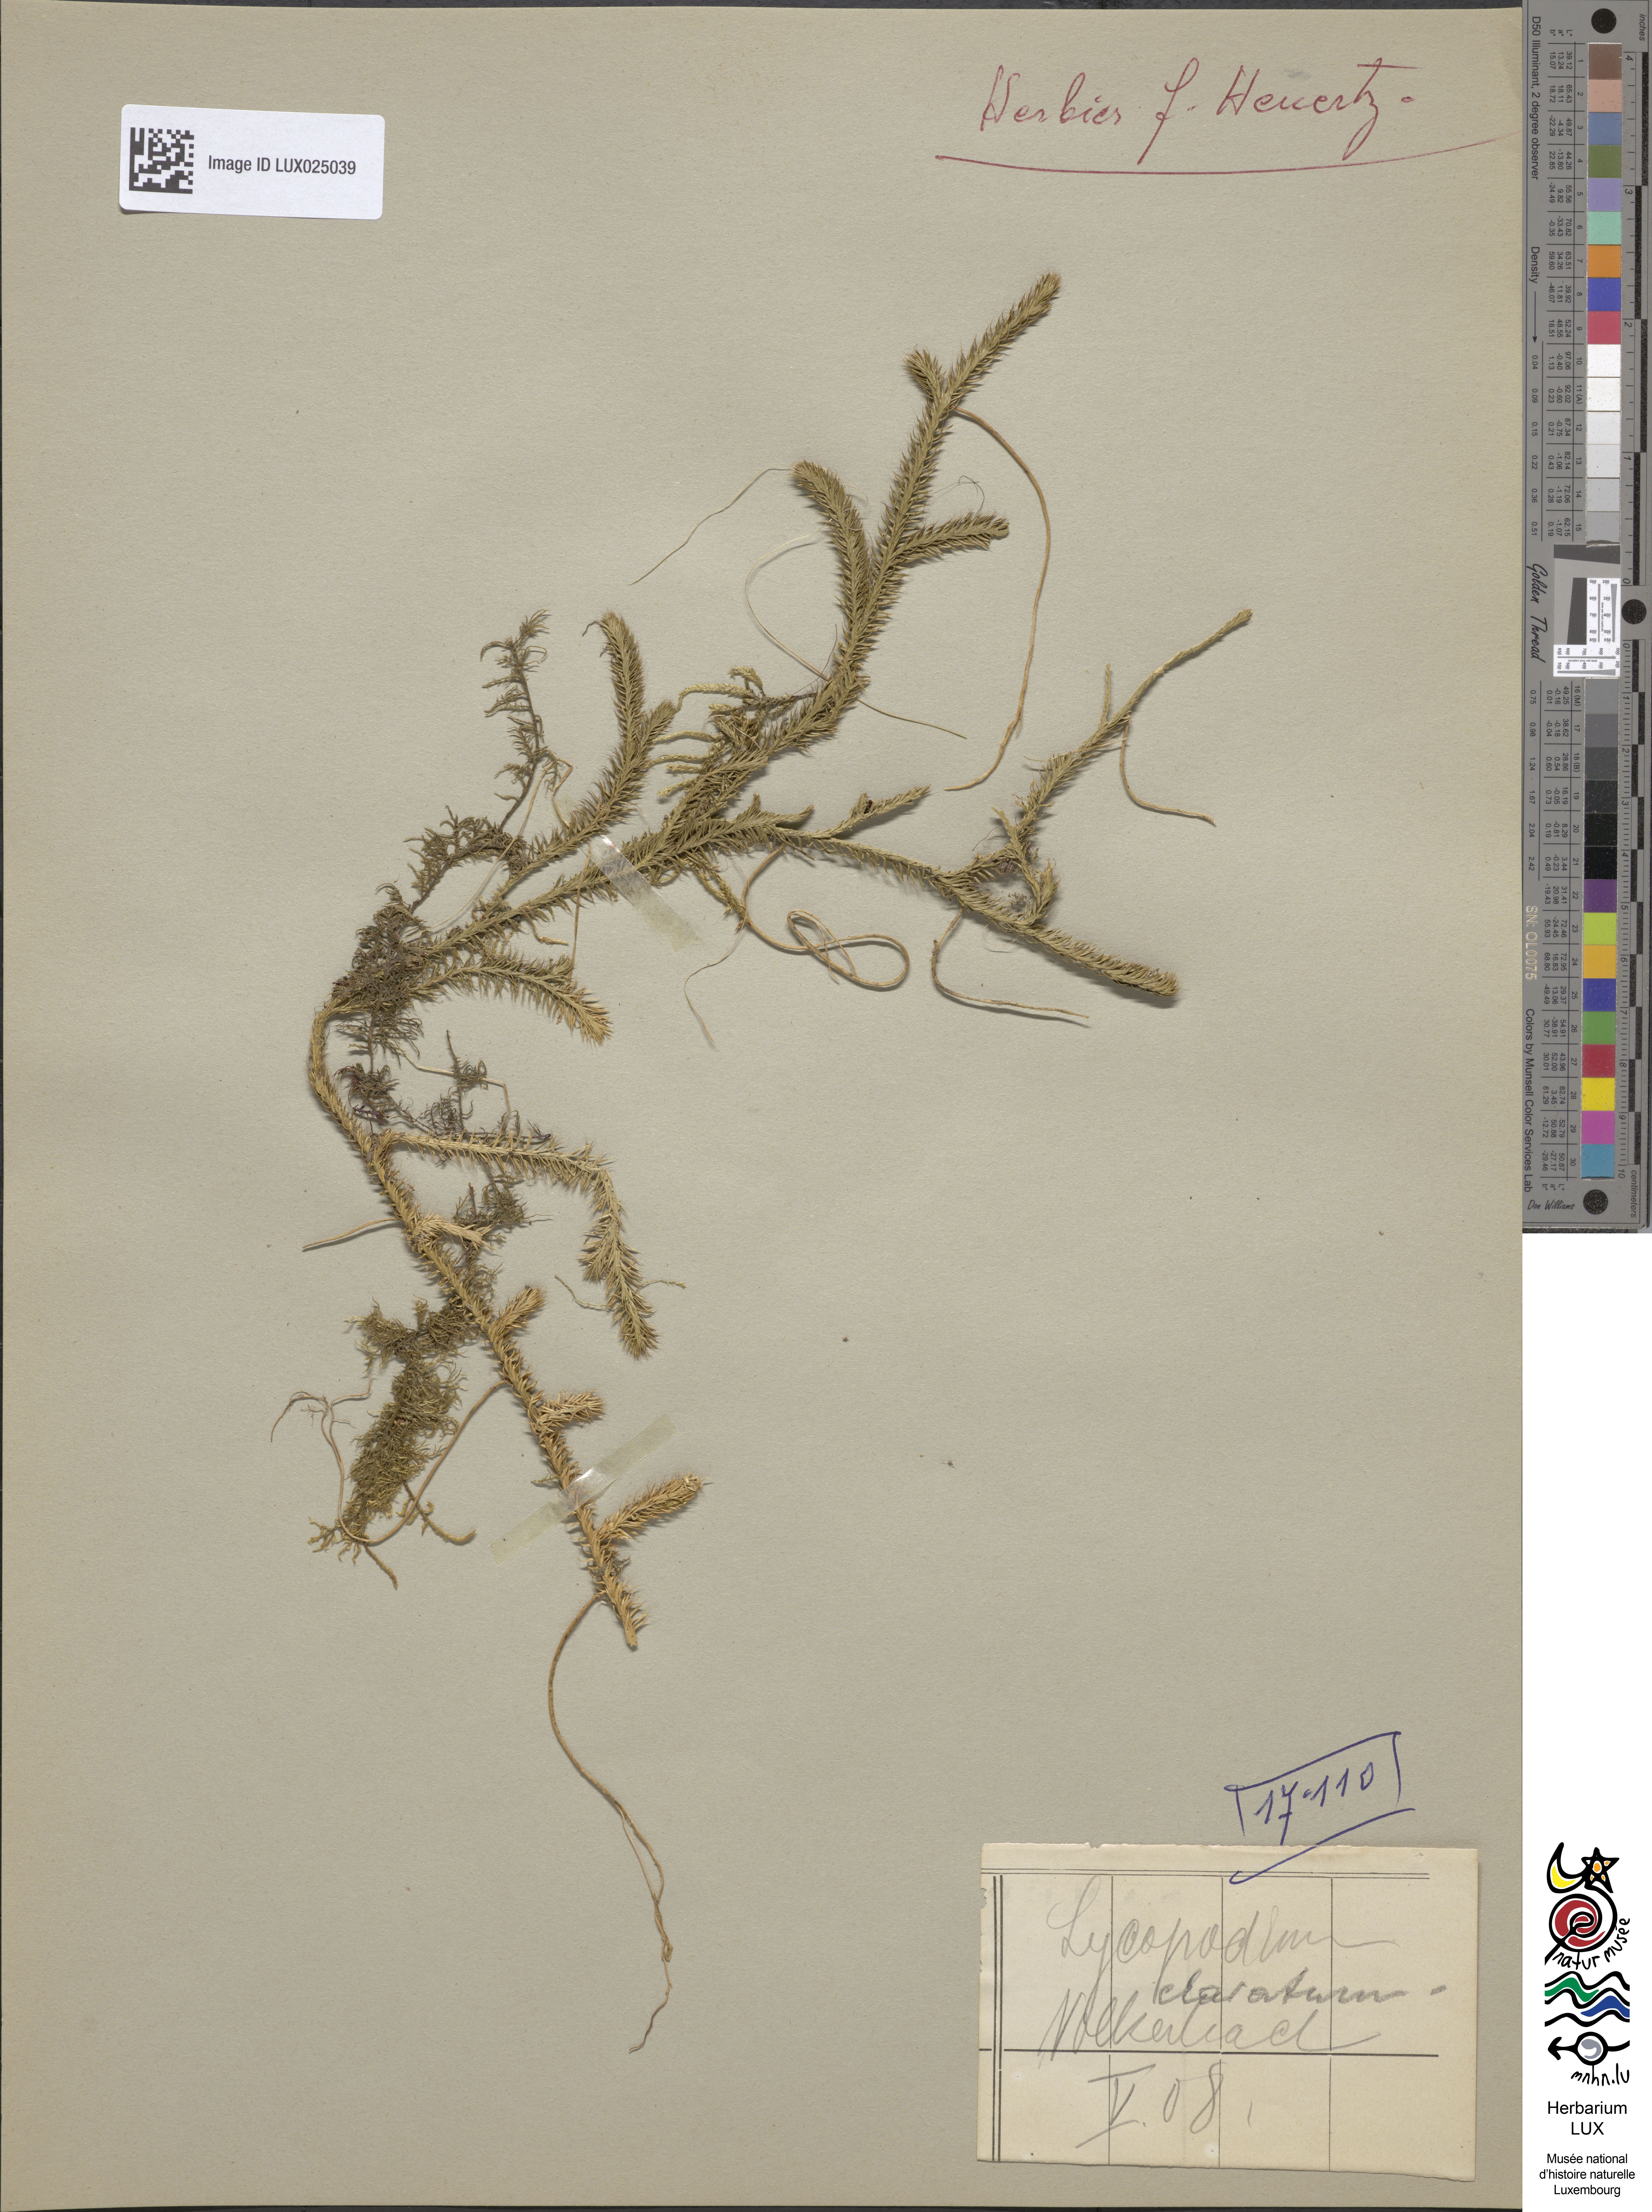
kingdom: Plantae
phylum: Tracheophyta
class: Lycopodiopsida
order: Lycopodiales
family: Lycopodiaceae
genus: Lycopodium
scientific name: Lycopodium clavatum
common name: Stag's-horn clubmoss
